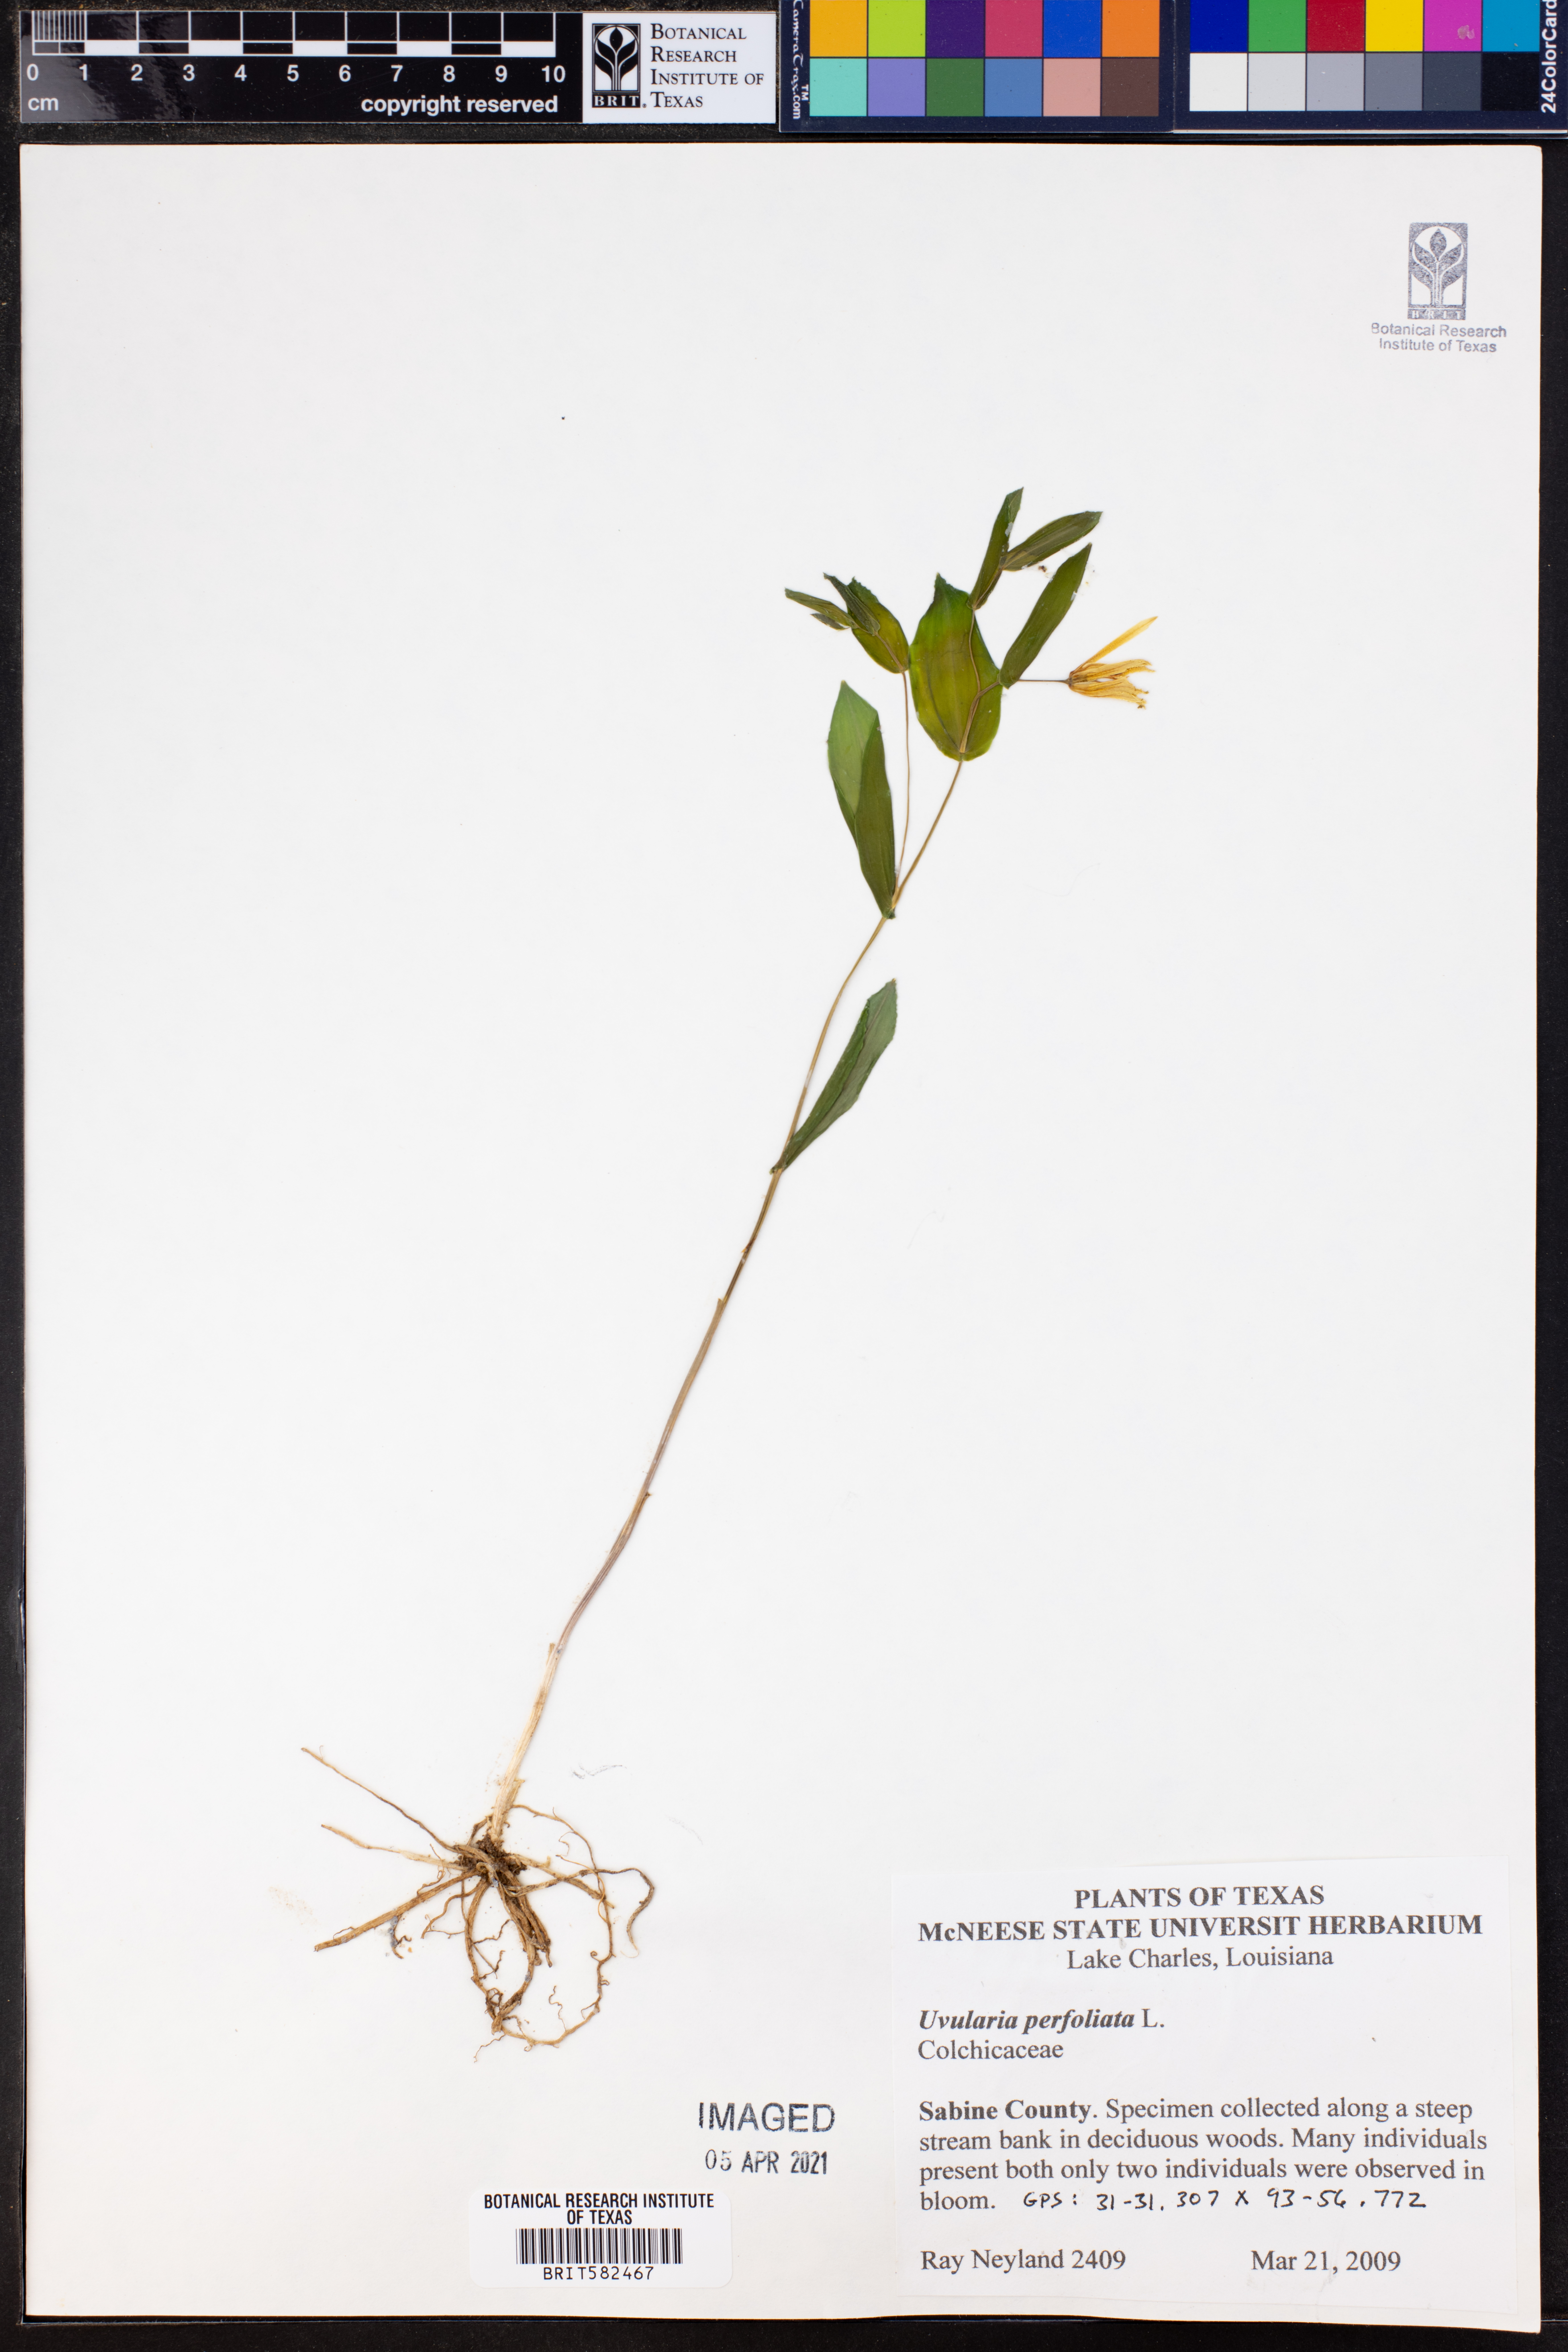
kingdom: Plantae
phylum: Tracheophyta
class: Liliopsida
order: Liliales
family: Colchicaceae
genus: Uvularia
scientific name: Uvularia perfoliata
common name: Perfoliate bellwort
